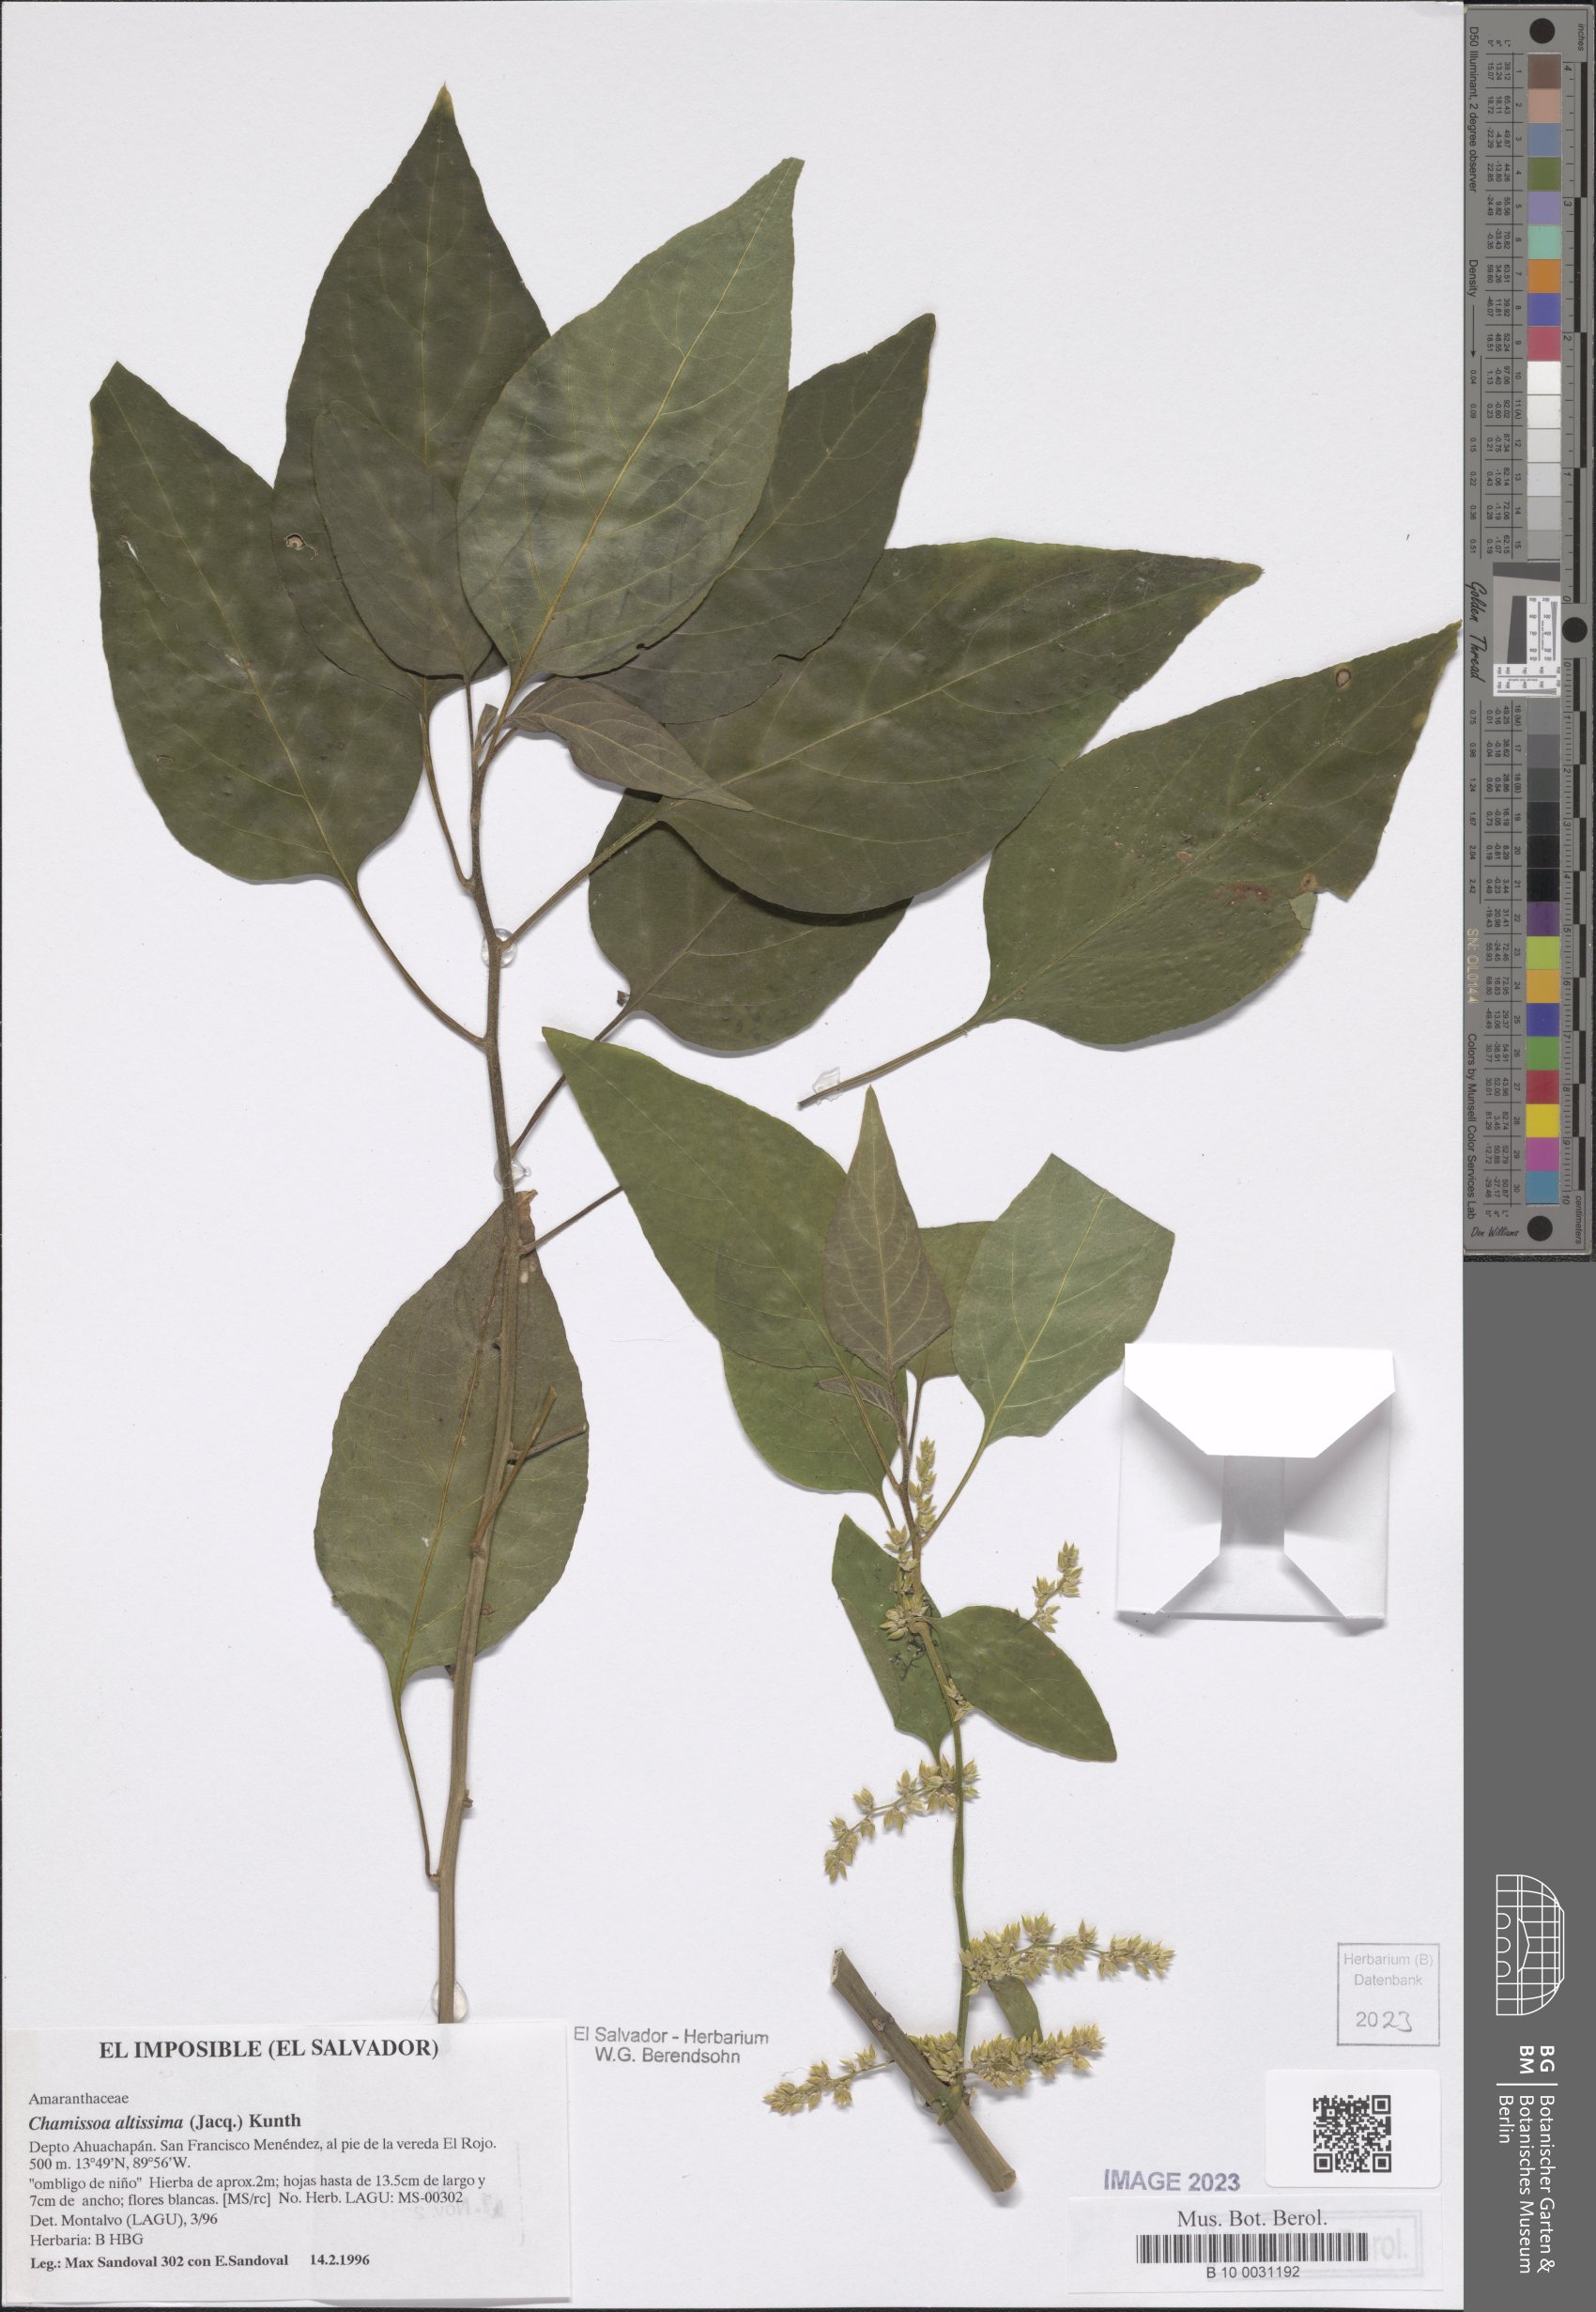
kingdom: Plantae
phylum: Tracheophyta
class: Magnoliopsida
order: Caryophyllales
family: Amaranthaceae
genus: Chamissoa
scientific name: Chamissoa altissima
